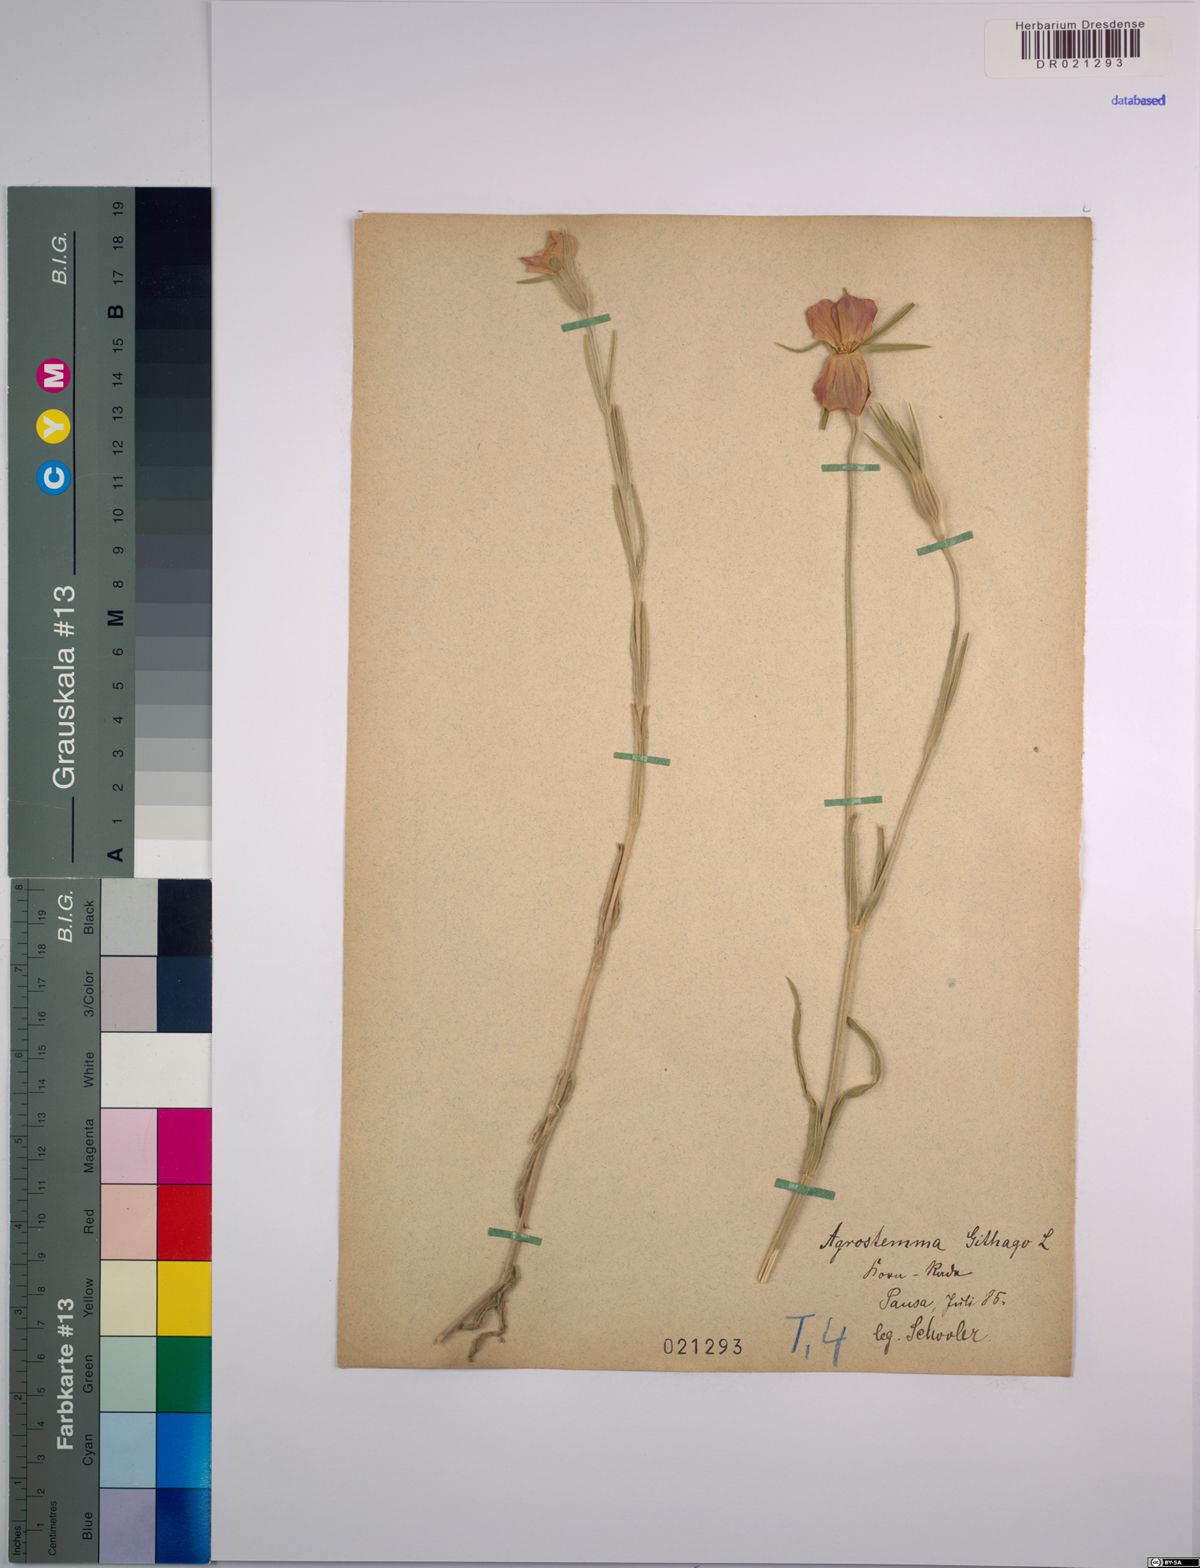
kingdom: Plantae
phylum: Tracheophyta
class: Magnoliopsida
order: Caryophyllales
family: Caryophyllaceae
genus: Agrostemma
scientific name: Agrostemma githago
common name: Common corncockle
